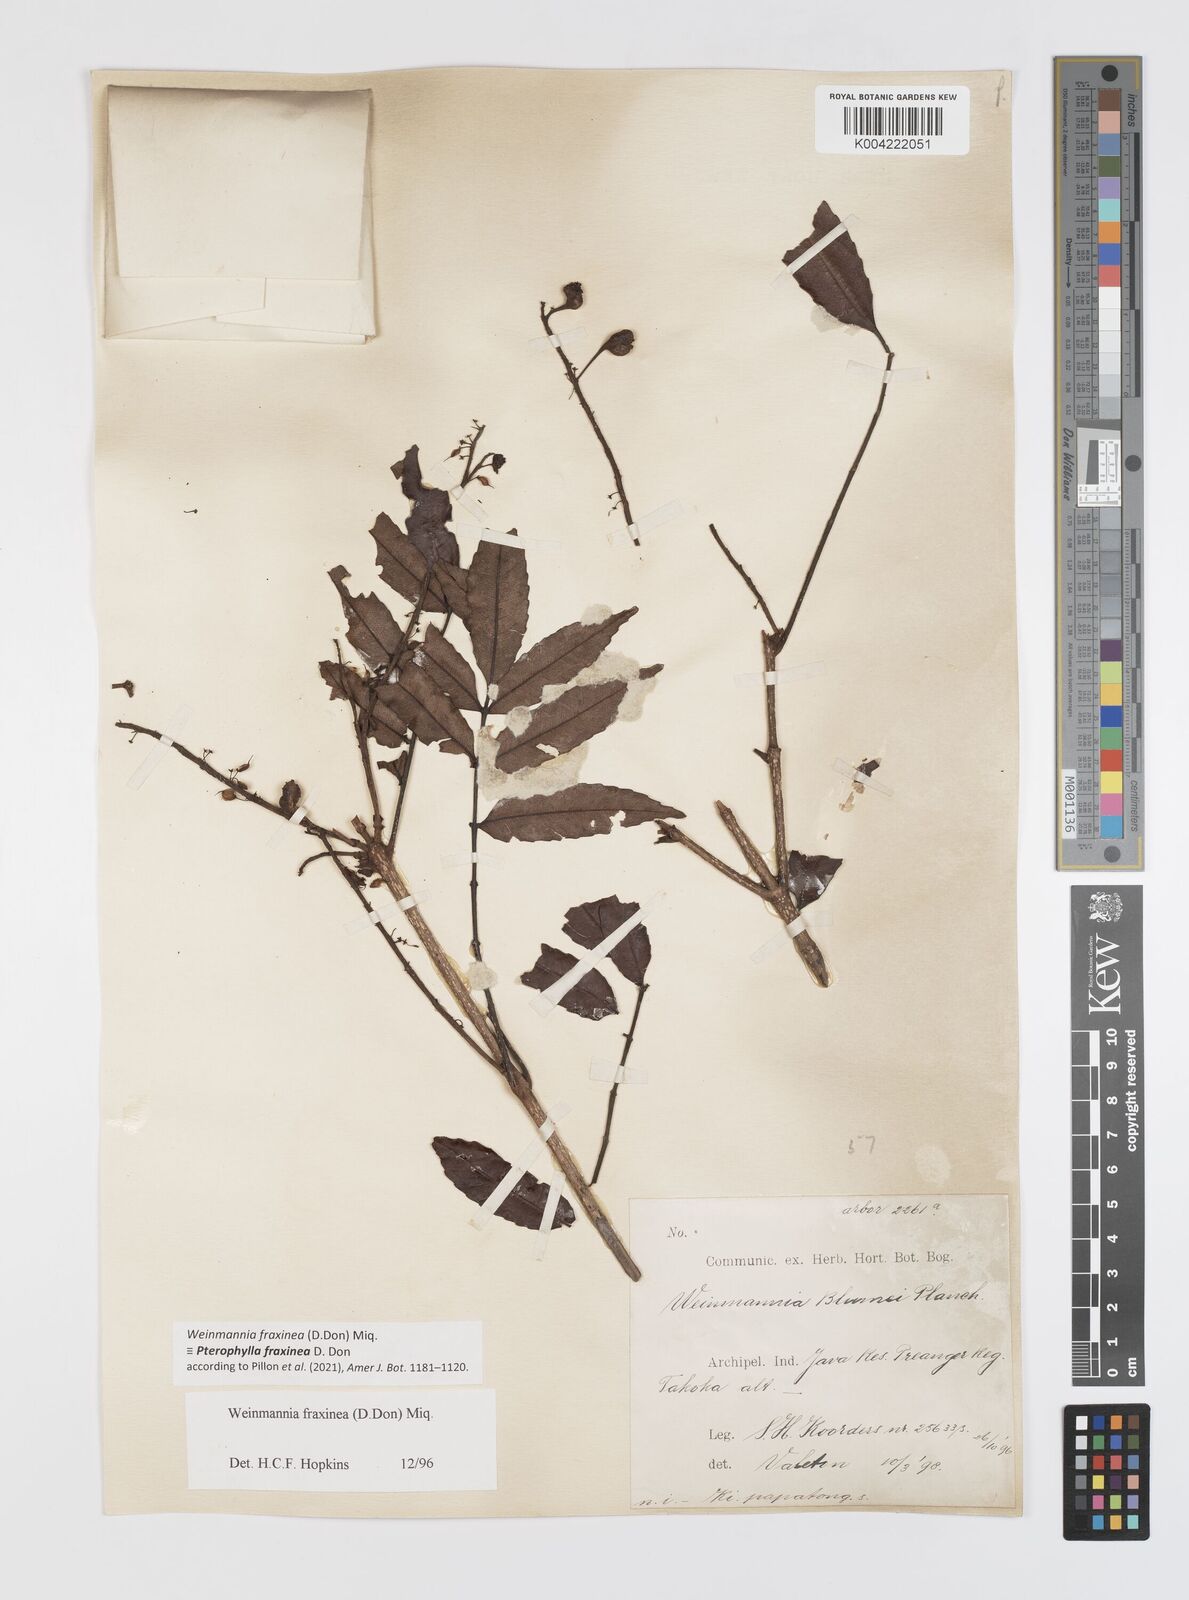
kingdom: Plantae
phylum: Tracheophyta
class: Magnoliopsida
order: Oxalidales
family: Cunoniaceae
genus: Pterophylla
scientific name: Pterophylla fraxinea
